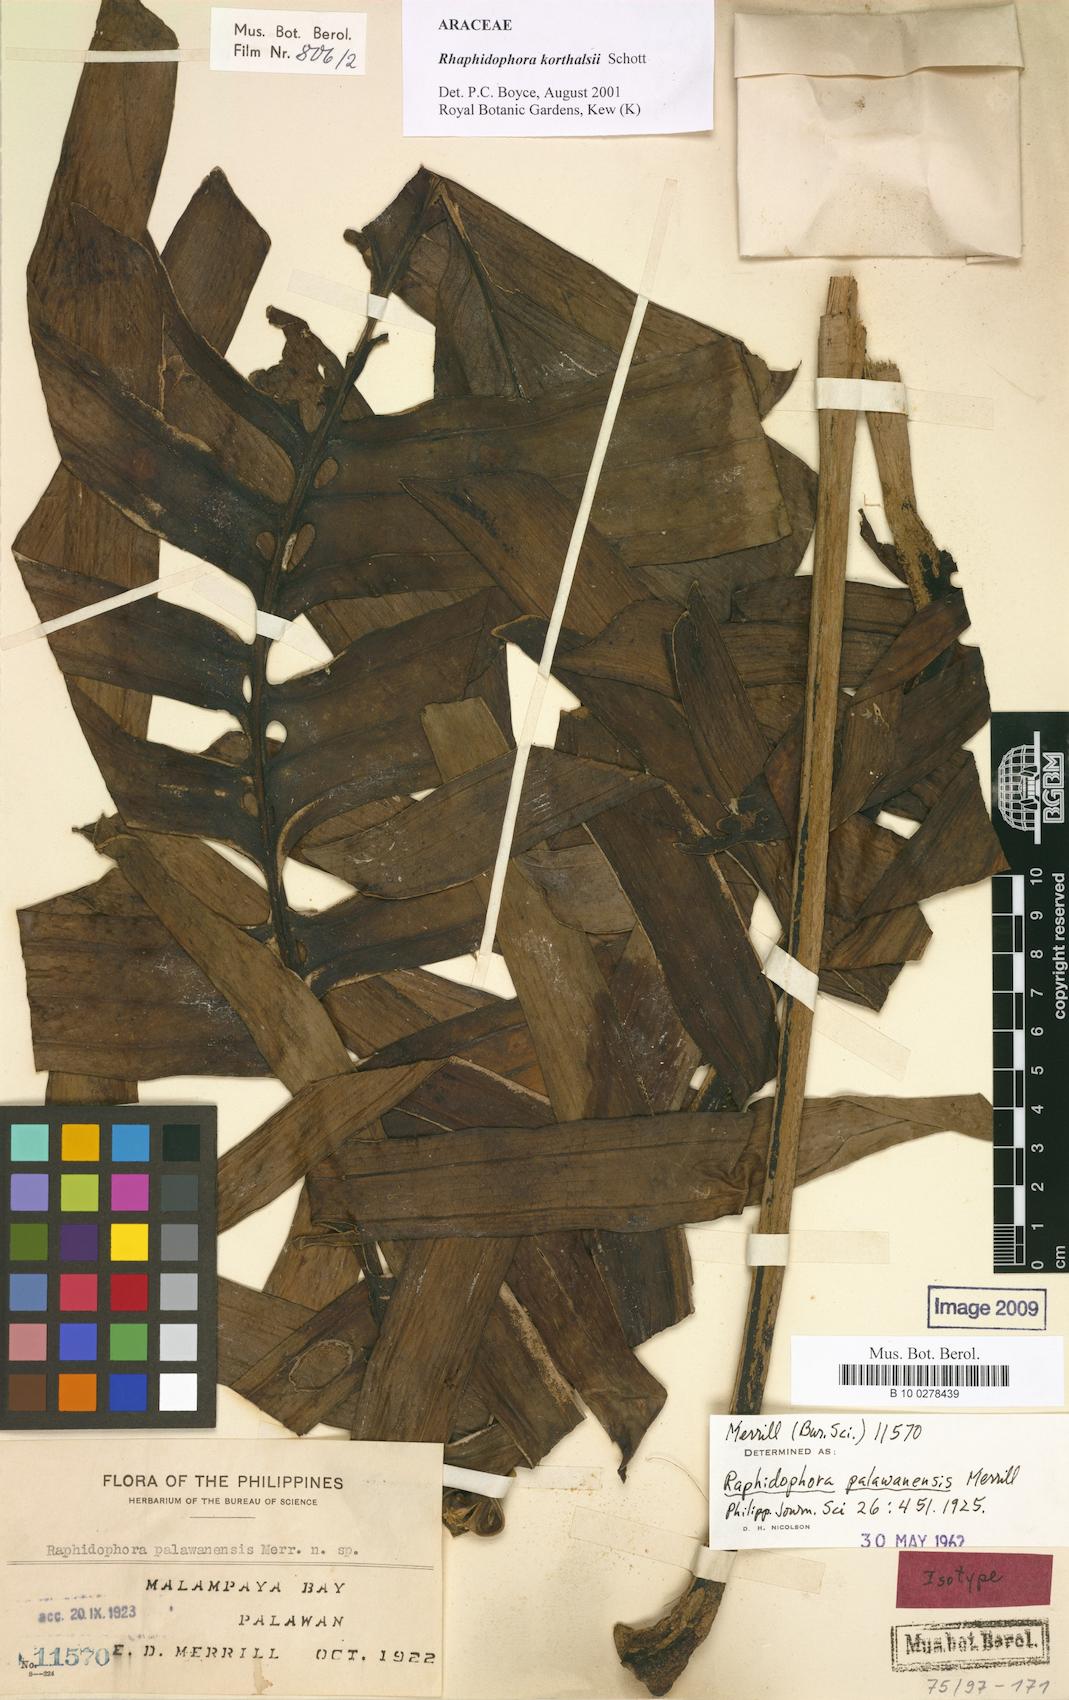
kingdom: Plantae
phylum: Tracheophyta
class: Liliopsida
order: Alismatales
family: Araceae
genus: Rhaphidophora
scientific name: Rhaphidophora korthalsii
